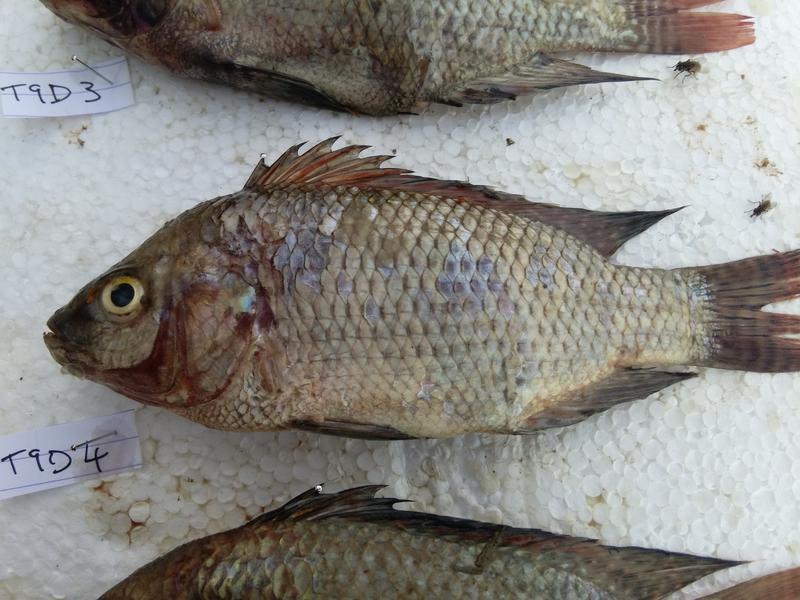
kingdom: Animalia
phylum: Chordata
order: Perciformes
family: Cichlidae
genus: Oreochromis
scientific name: Oreochromis niloticus
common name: Nile tilapia
